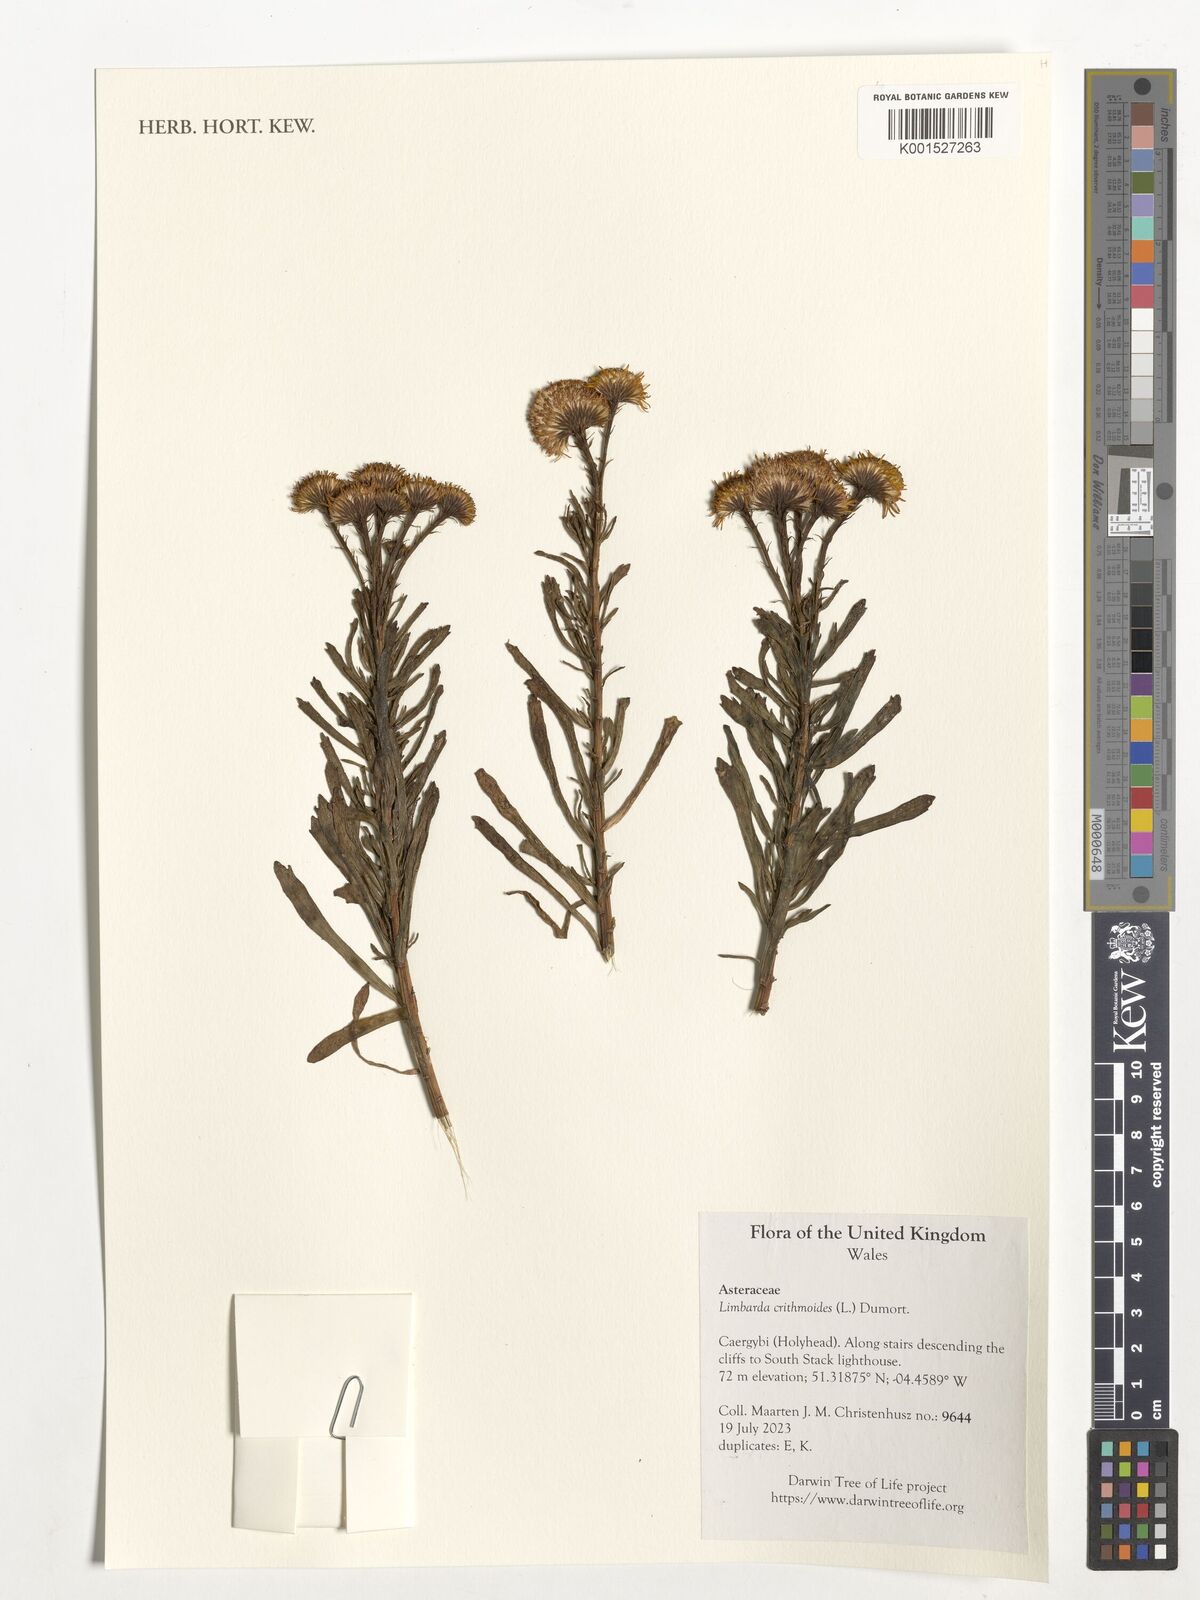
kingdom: Plantae
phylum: Tracheophyta
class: Magnoliopsida
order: Asterales
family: Asteraceae
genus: Limbarda
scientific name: Limbarda crithmoides
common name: Golden samphire
